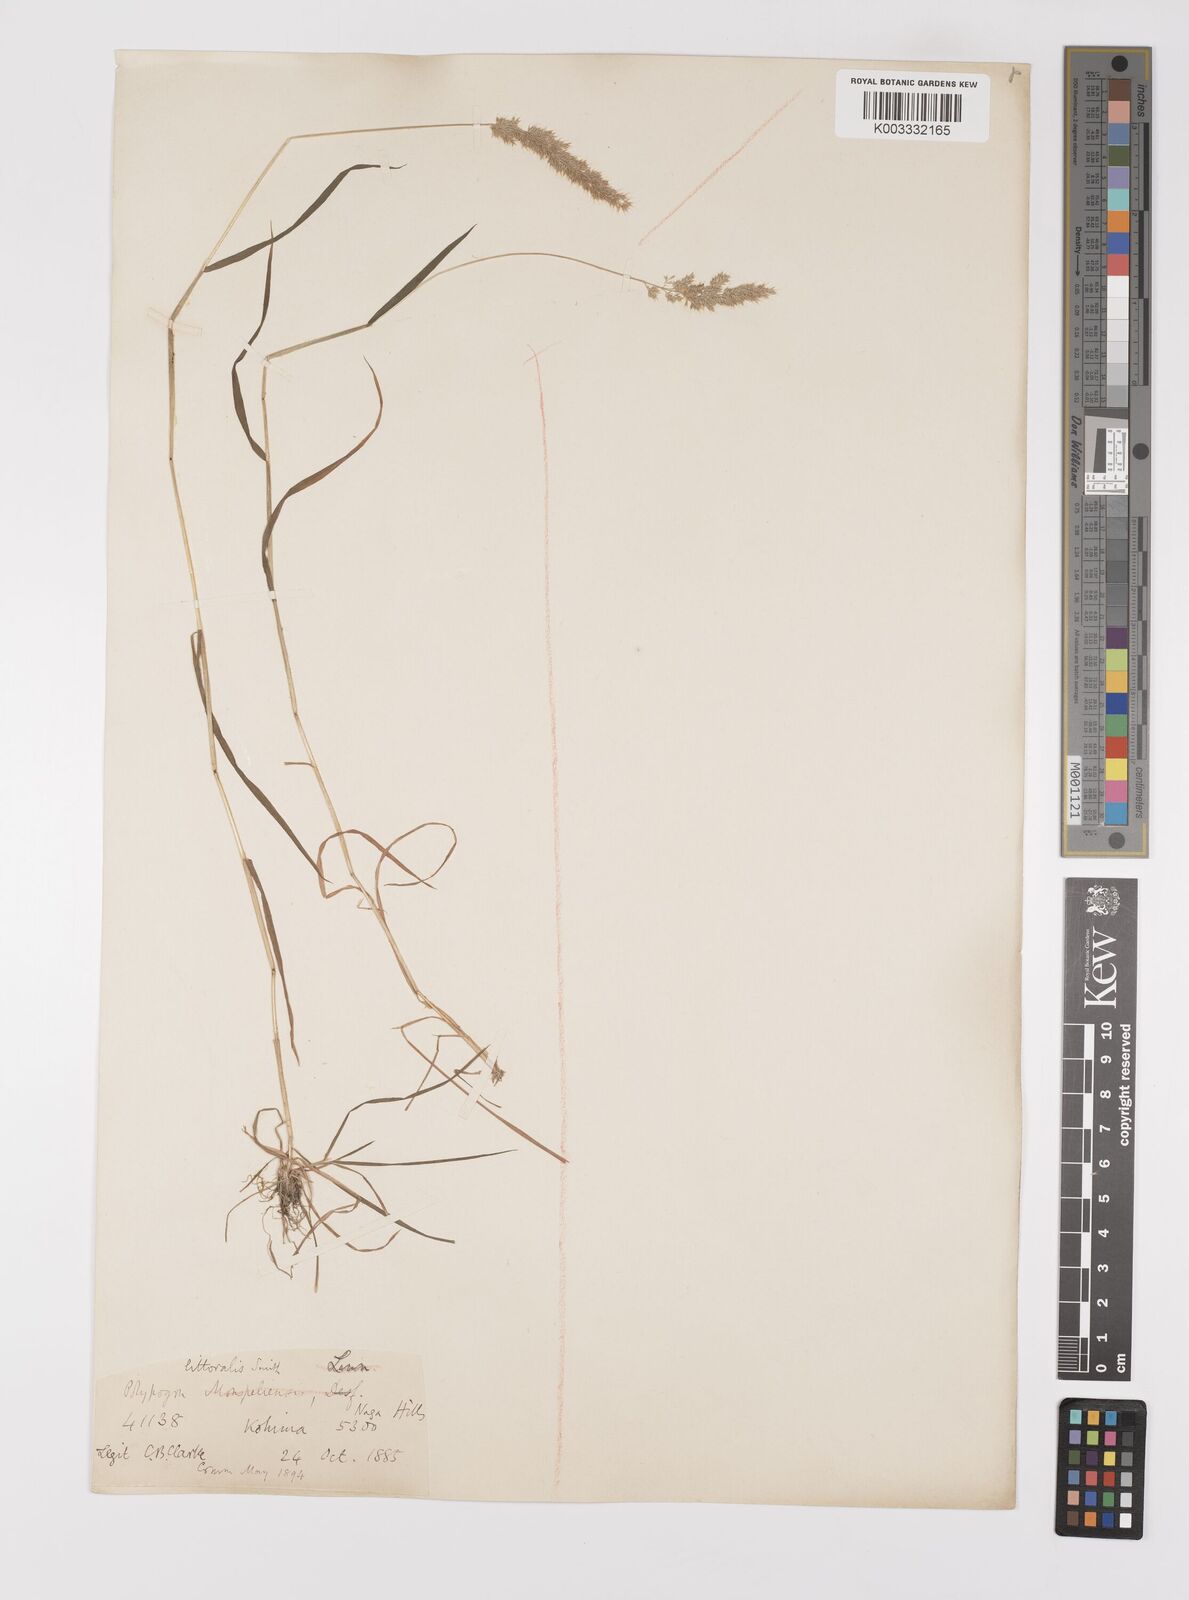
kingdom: Plantae
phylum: Tracheophyta
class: Liliopsida
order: Poales
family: Poaceae
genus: Polypogon
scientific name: Polypogon fugax
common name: Asia minor bluegrass
